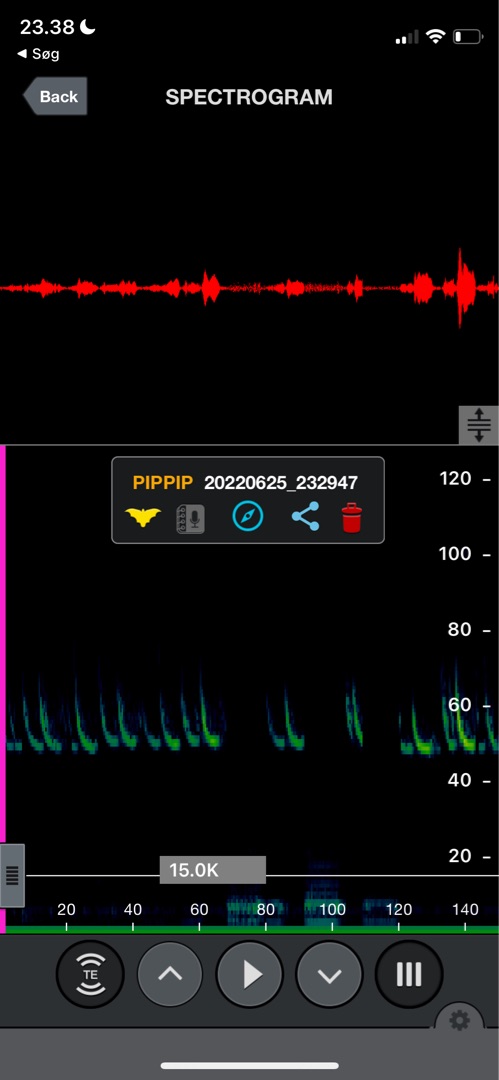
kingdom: Animalia
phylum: Chordata
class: Mammalia
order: Chiroptera
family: Vespertilionidae
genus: Pipistrellus
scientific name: Pipistrellus pipistrellus
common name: Pipistrelflagermus
